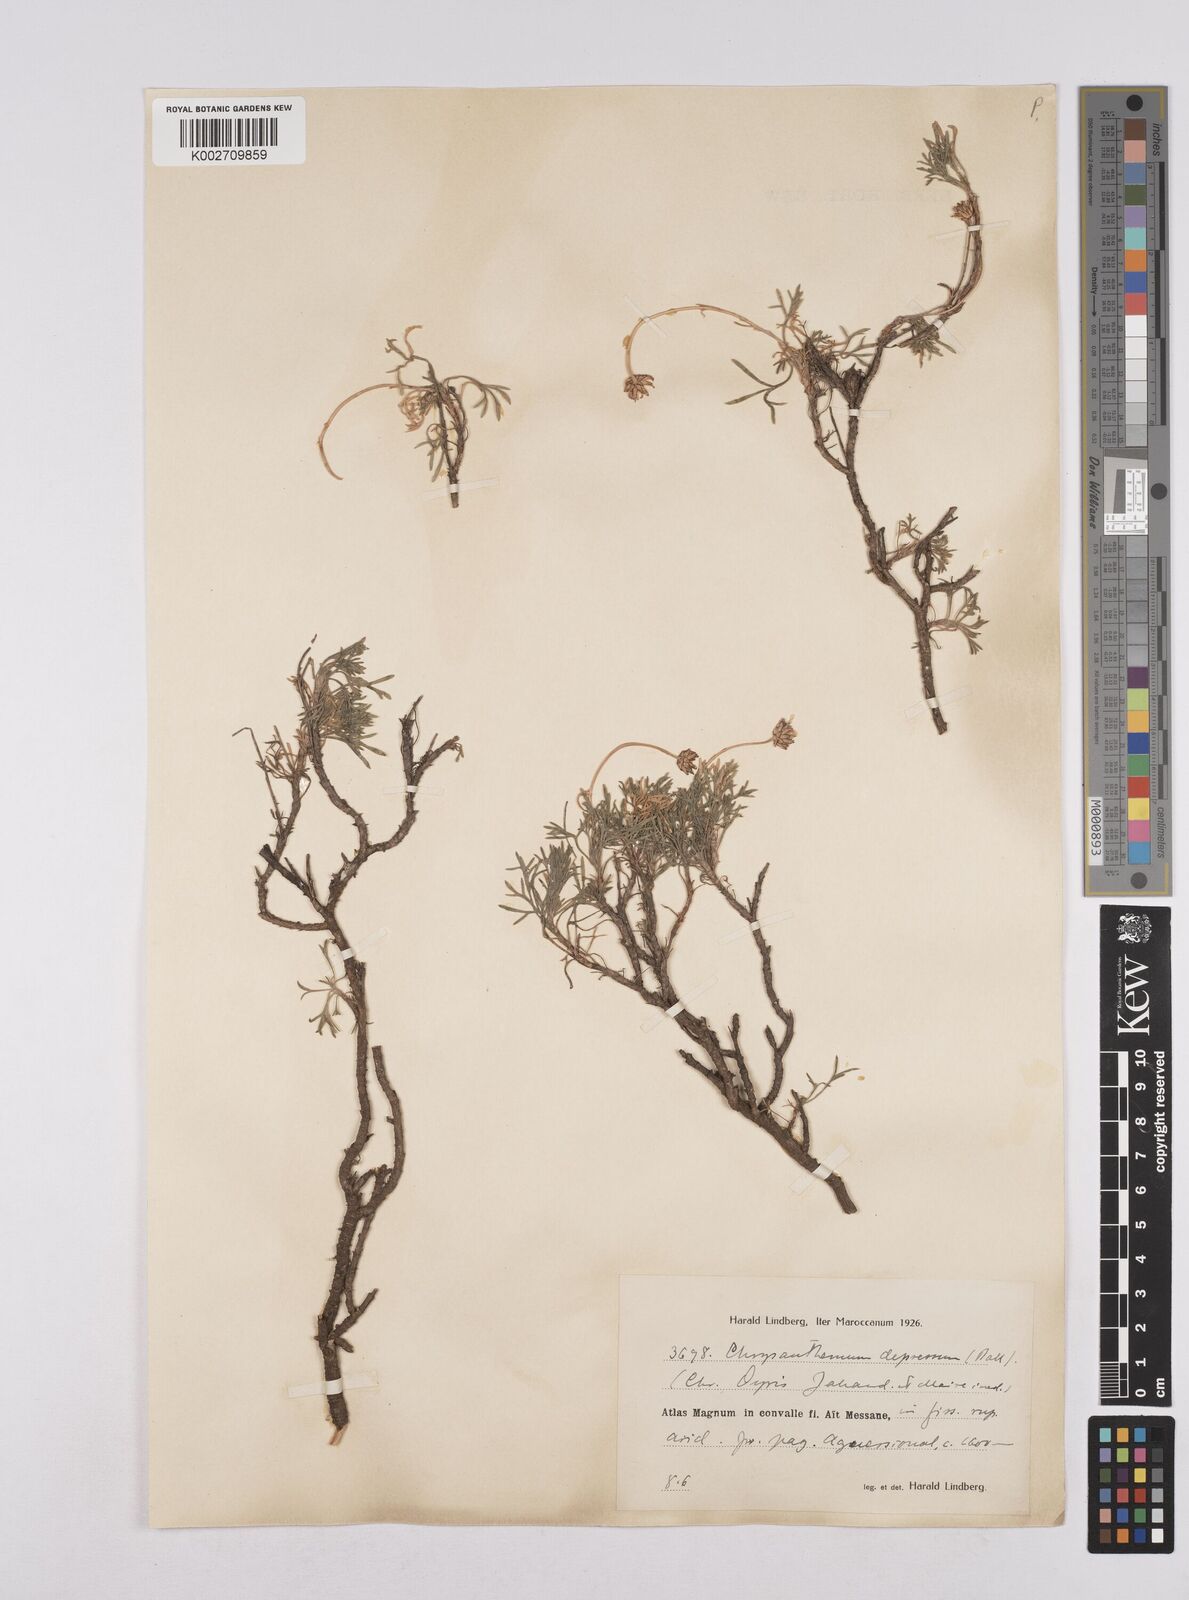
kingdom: Plantae
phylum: Tracheophyta
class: Magnoliopsida
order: Asterales
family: Asteraceae
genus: Rhodanthemum
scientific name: Rhodanthemum depressum
